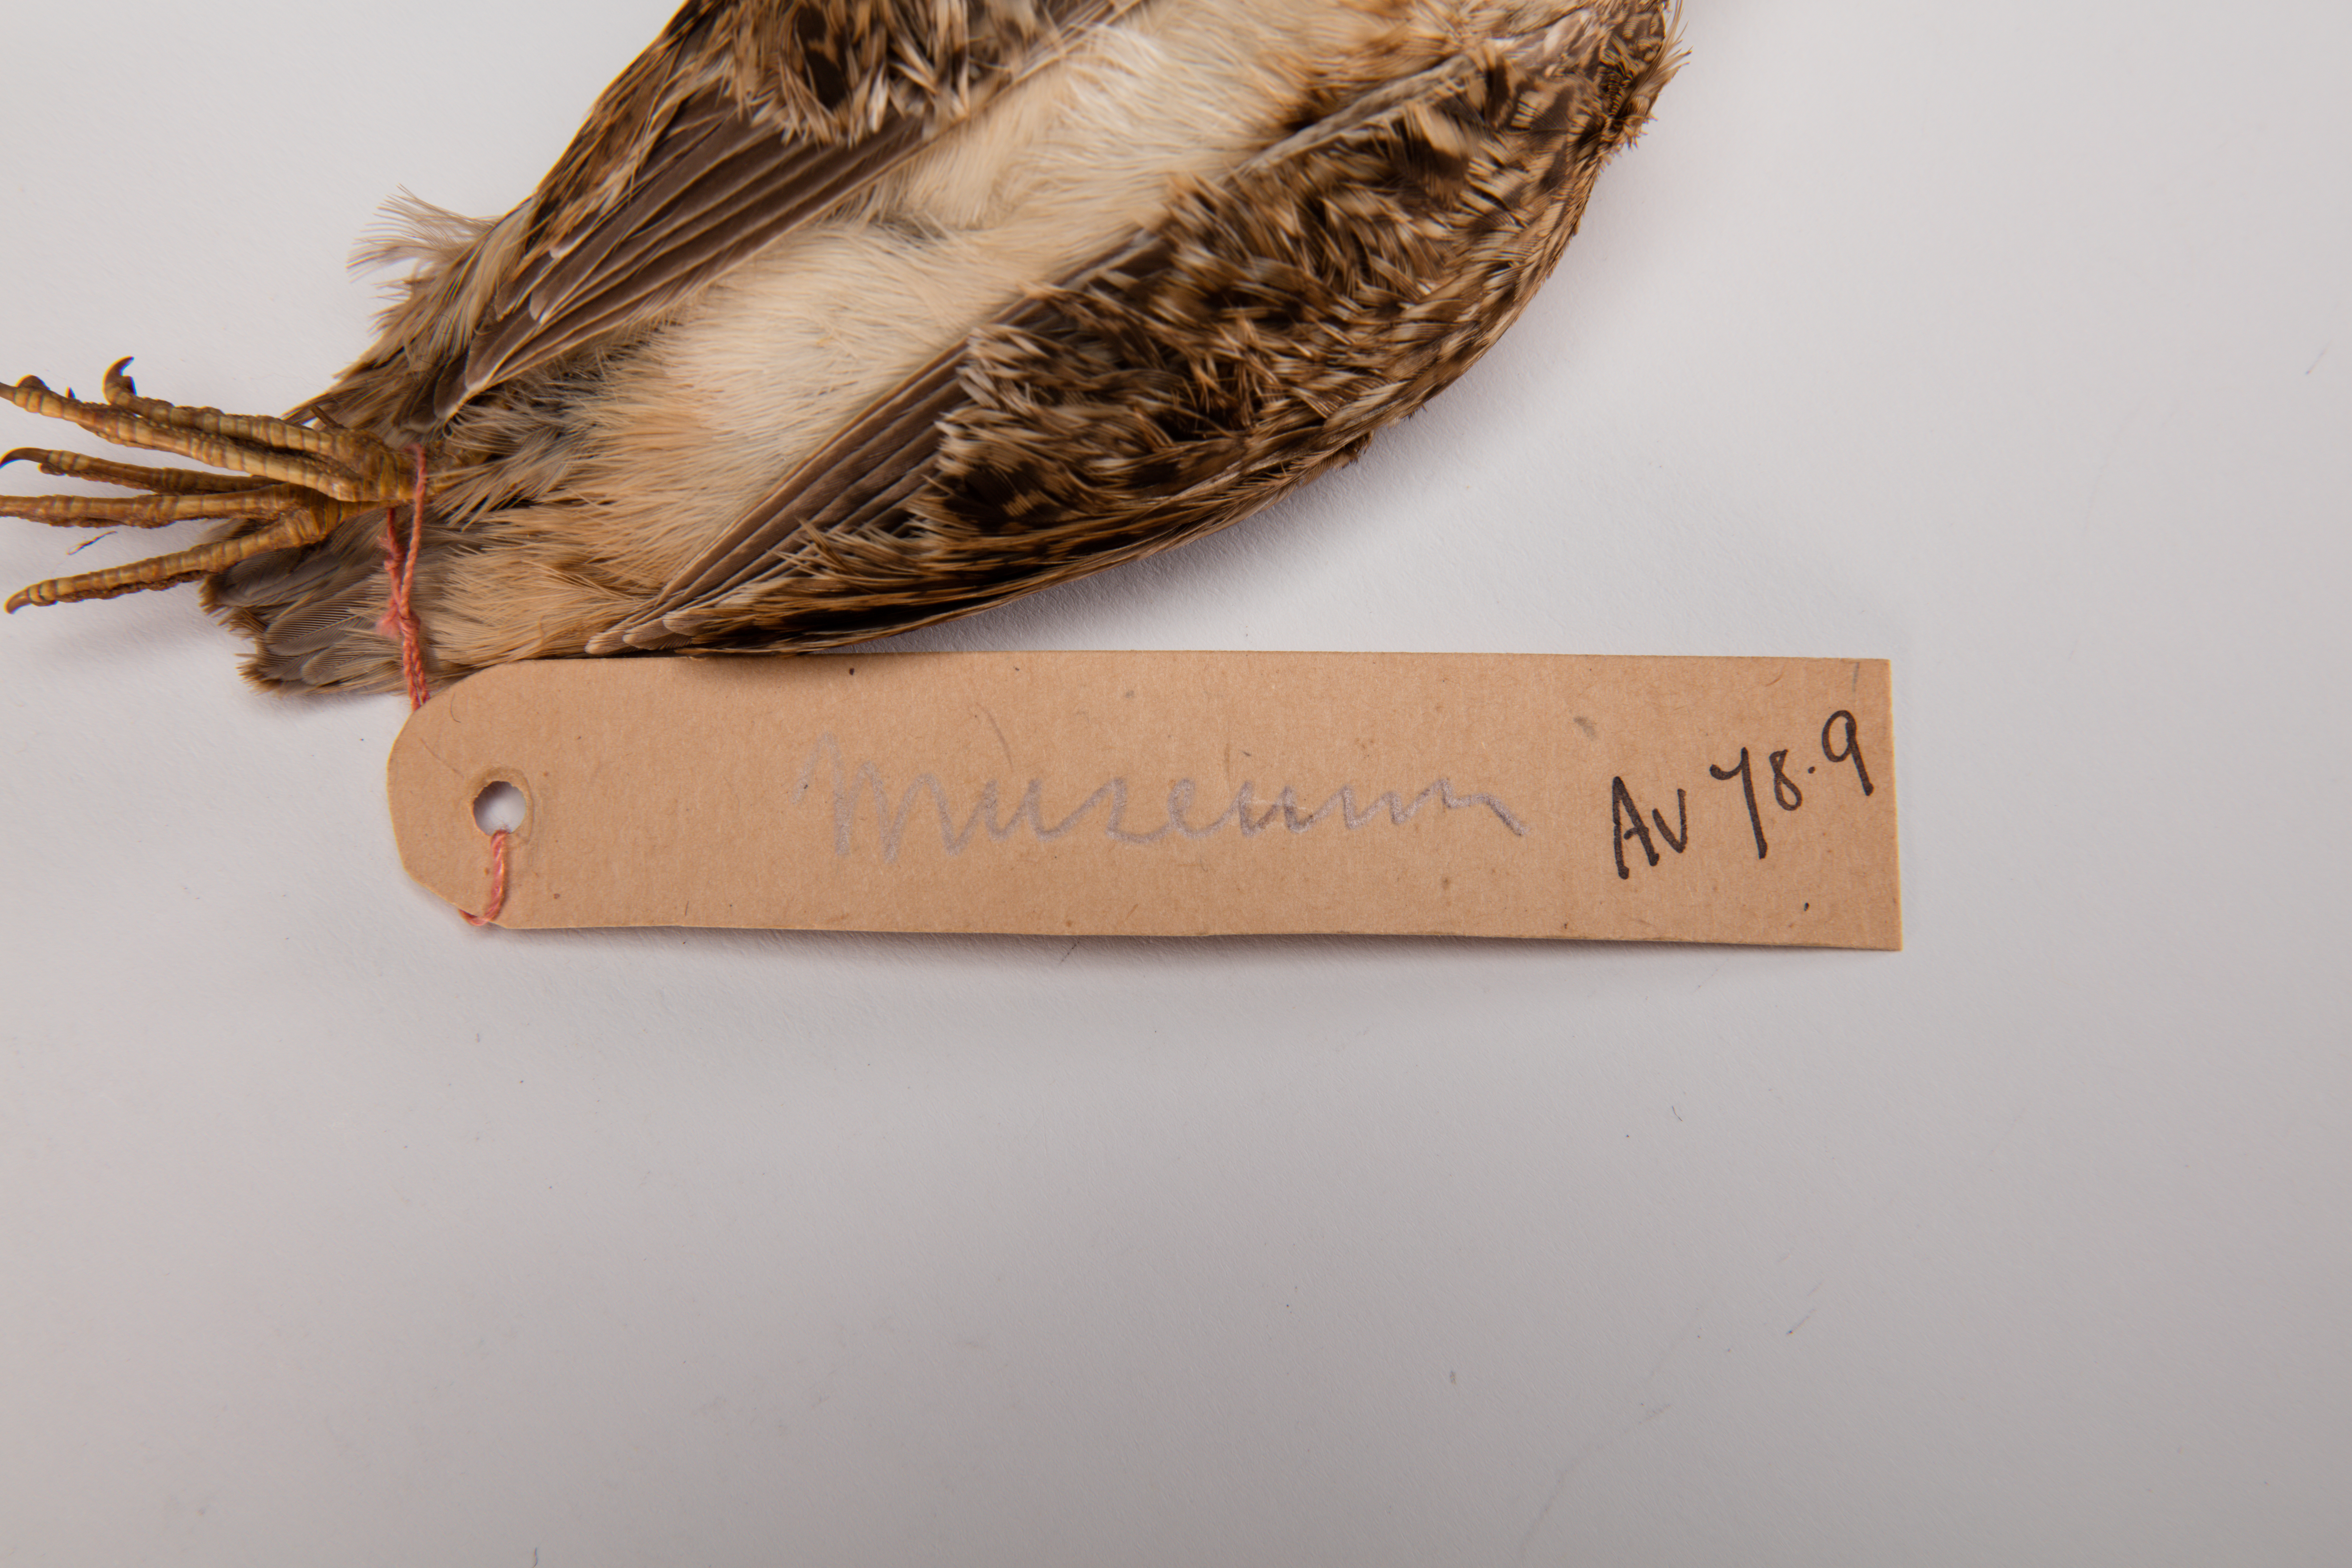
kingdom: Animalia
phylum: Chordata
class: Aves
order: Charadriiformes
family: Scolopacidae
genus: Coenocorypha
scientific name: Coenocorypha pusilla
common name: Chatham snipe
